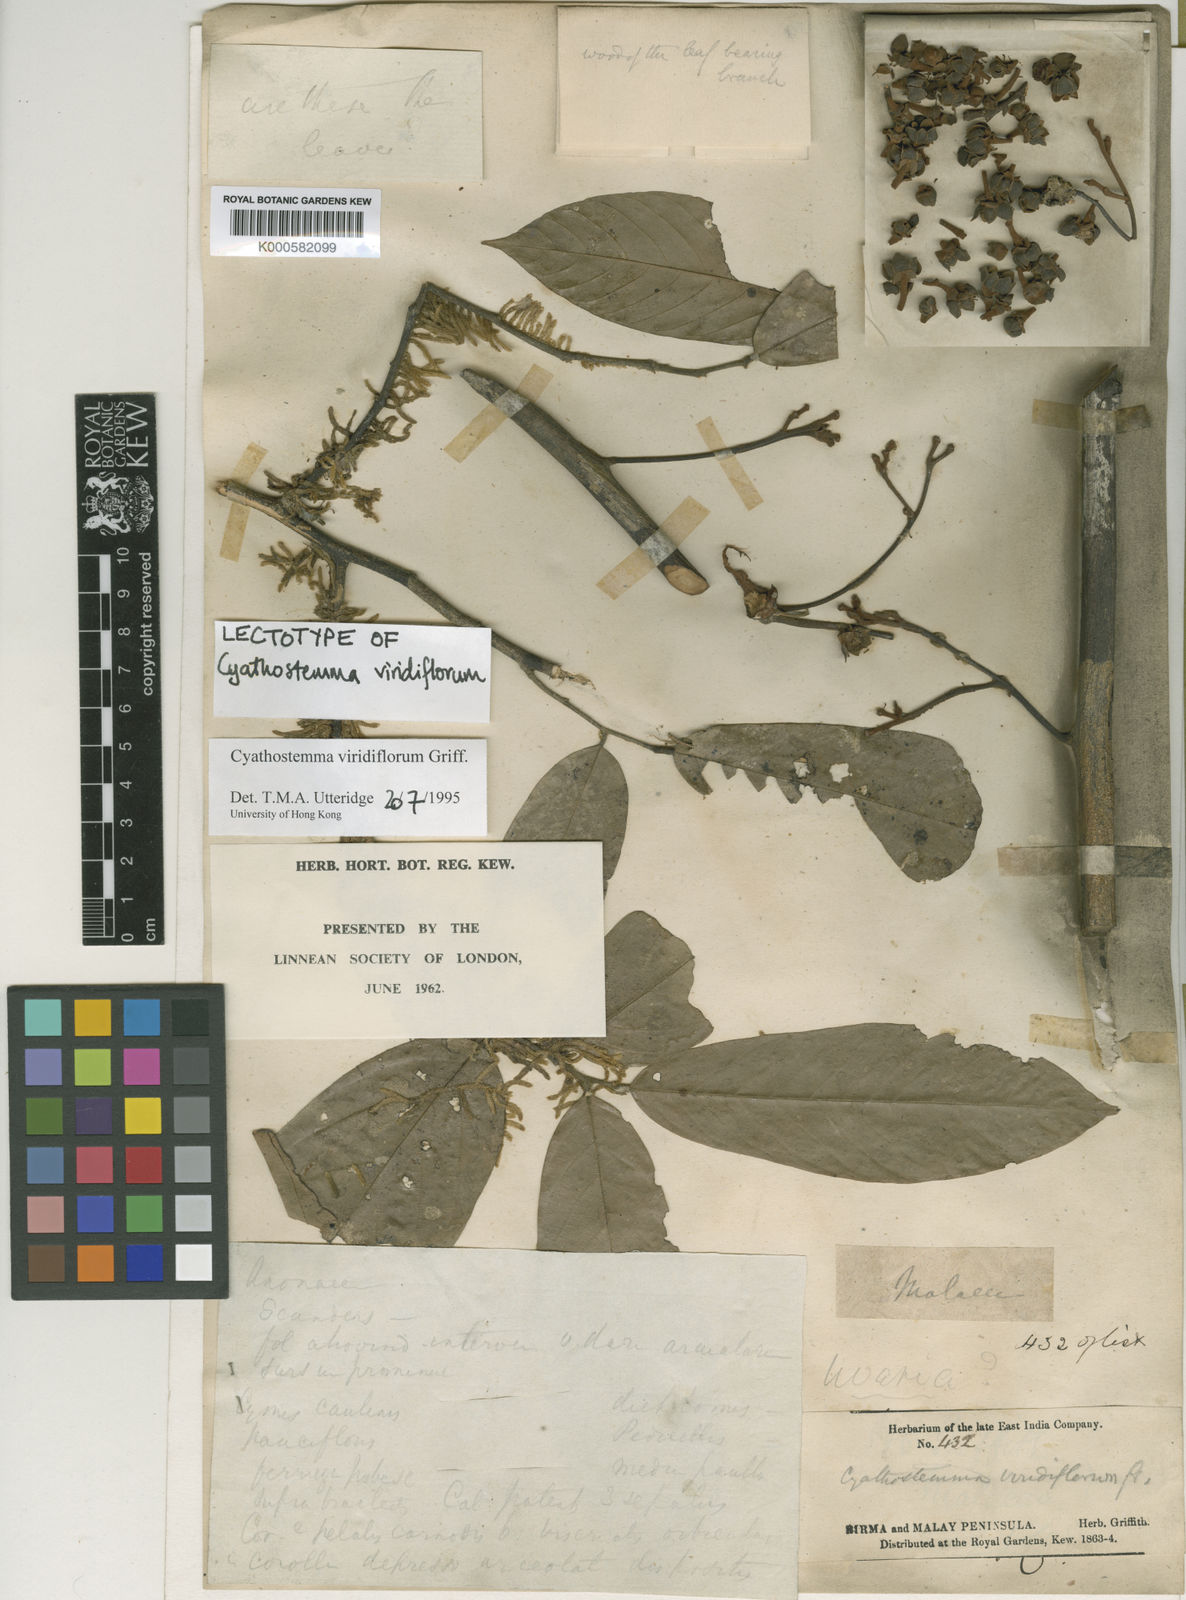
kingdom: Plantae
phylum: Tracheophyta
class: Magnoliopsida
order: Magnoliales
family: Annonaceae
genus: Uvaria
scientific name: Uvaria griffithii
